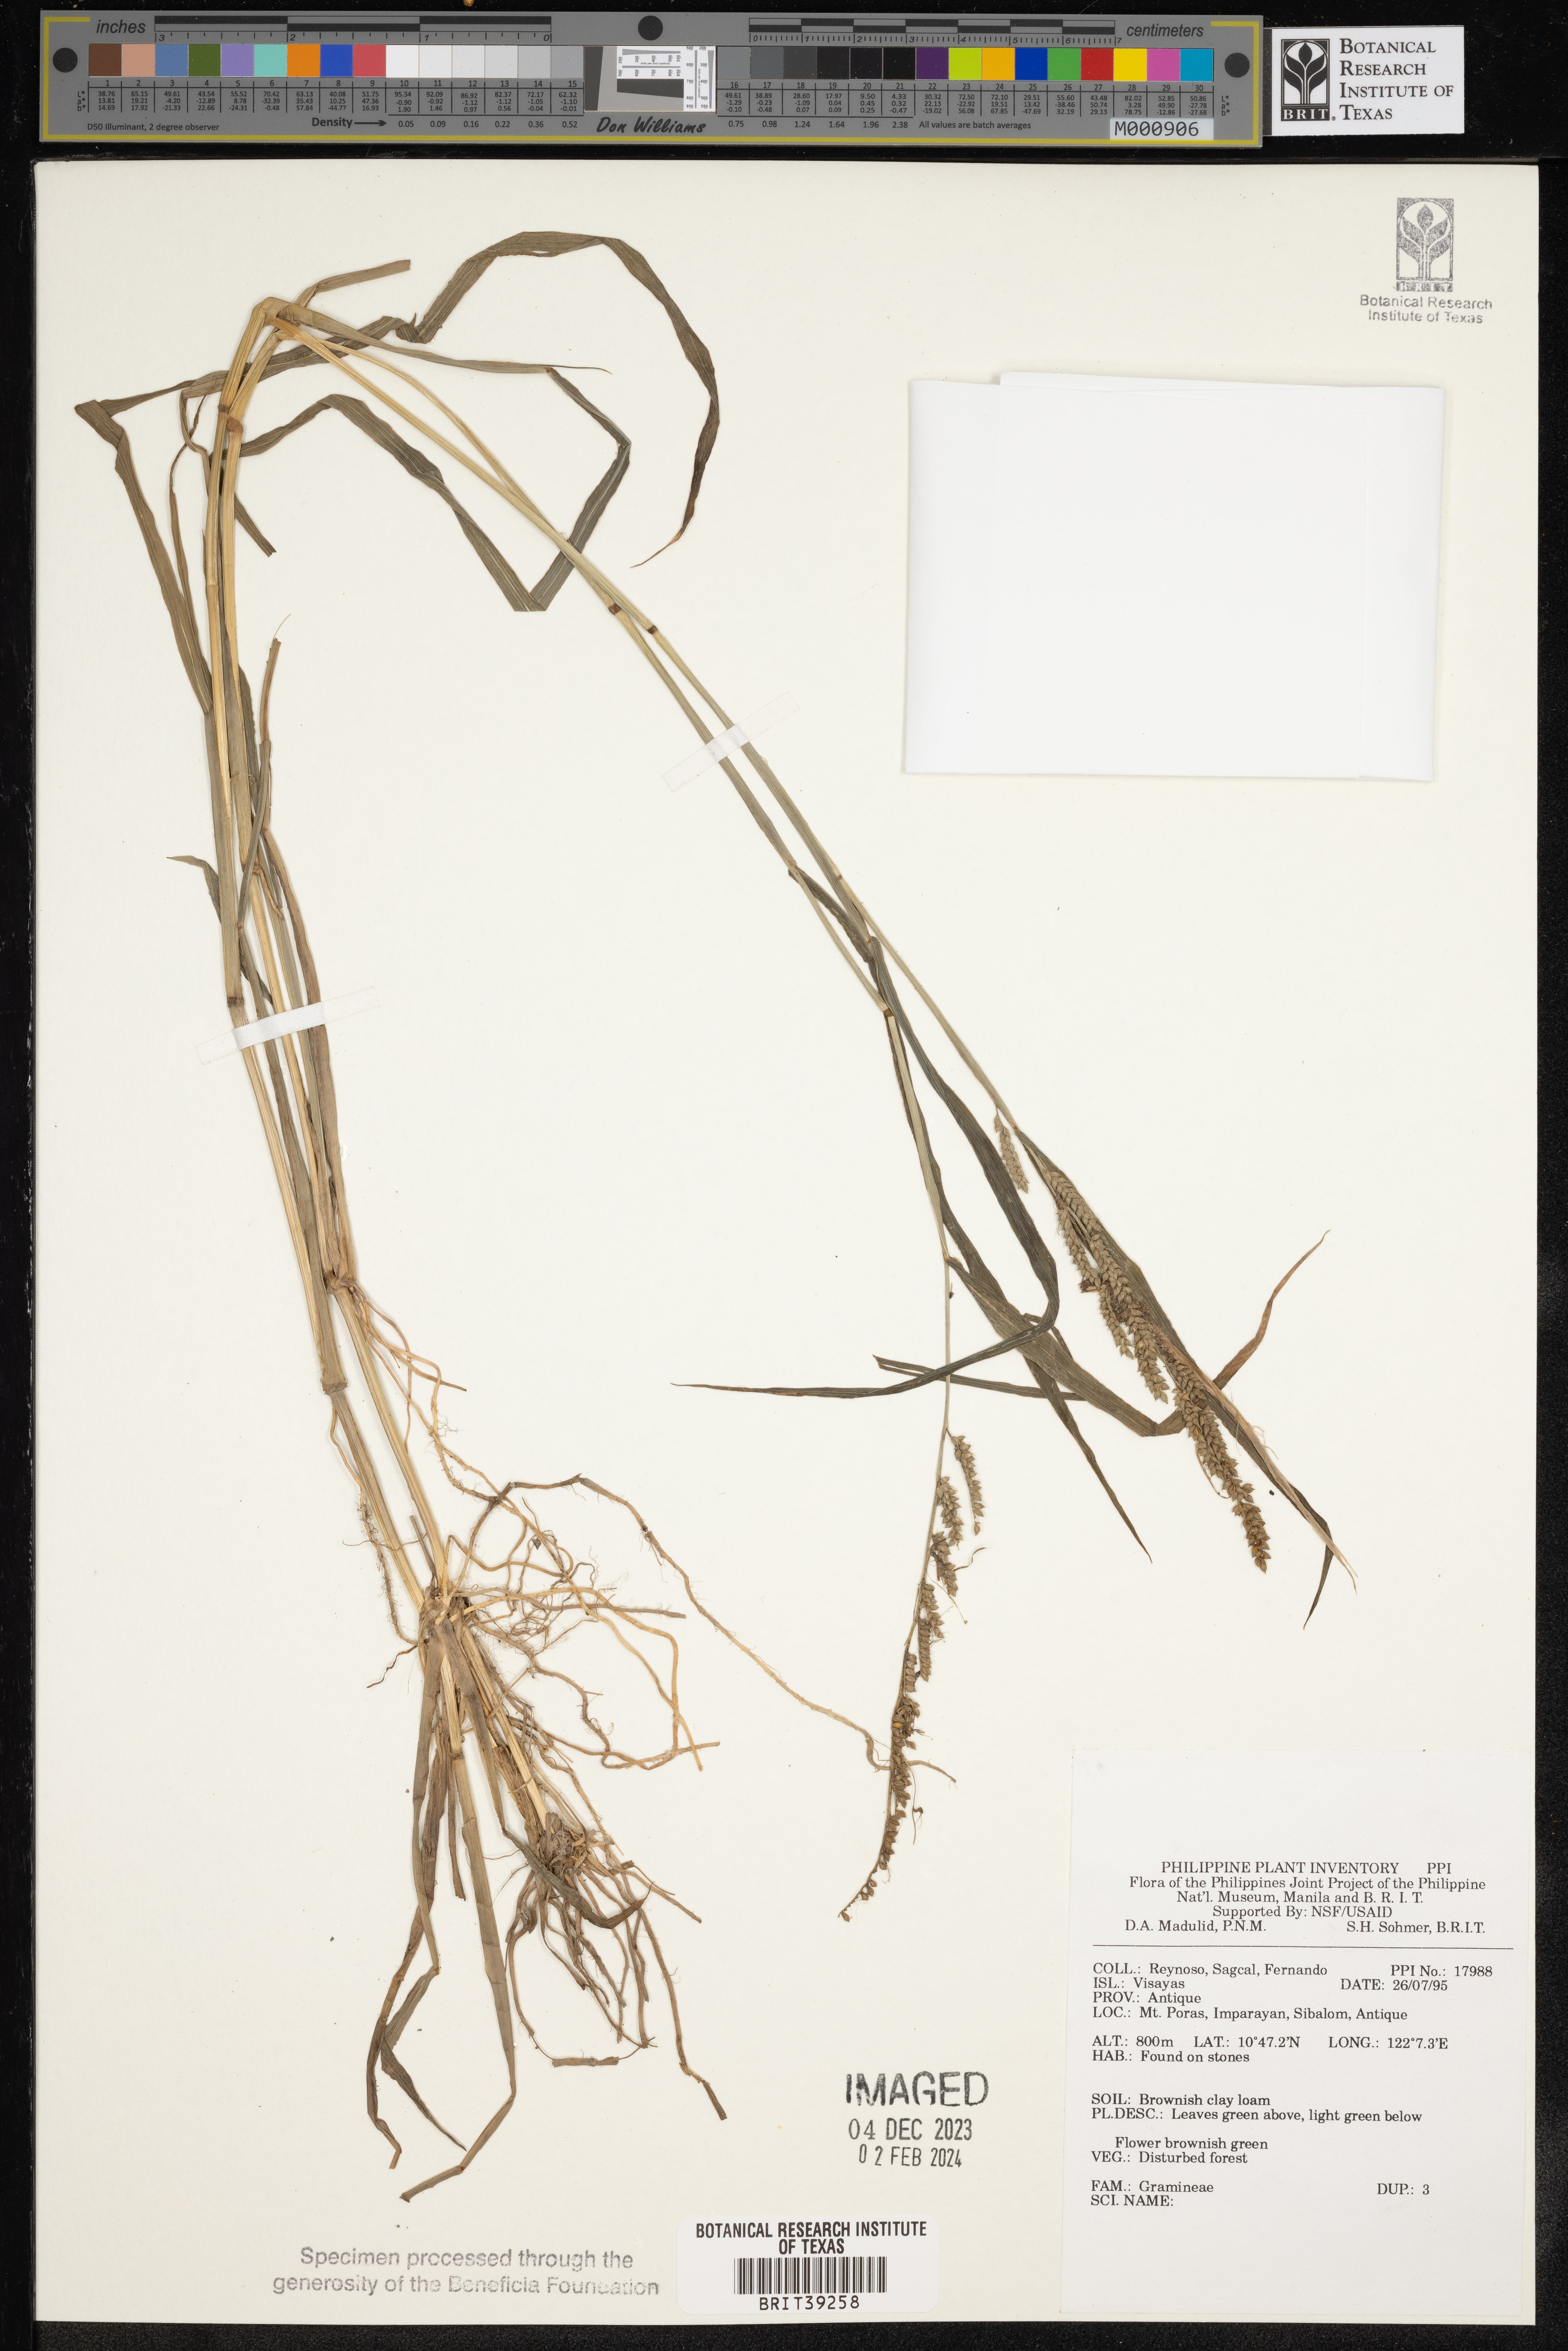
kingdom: Plantae
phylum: Tracheophyta
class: Liliopsida
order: Poales
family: Poaceae
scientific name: Poaceae
